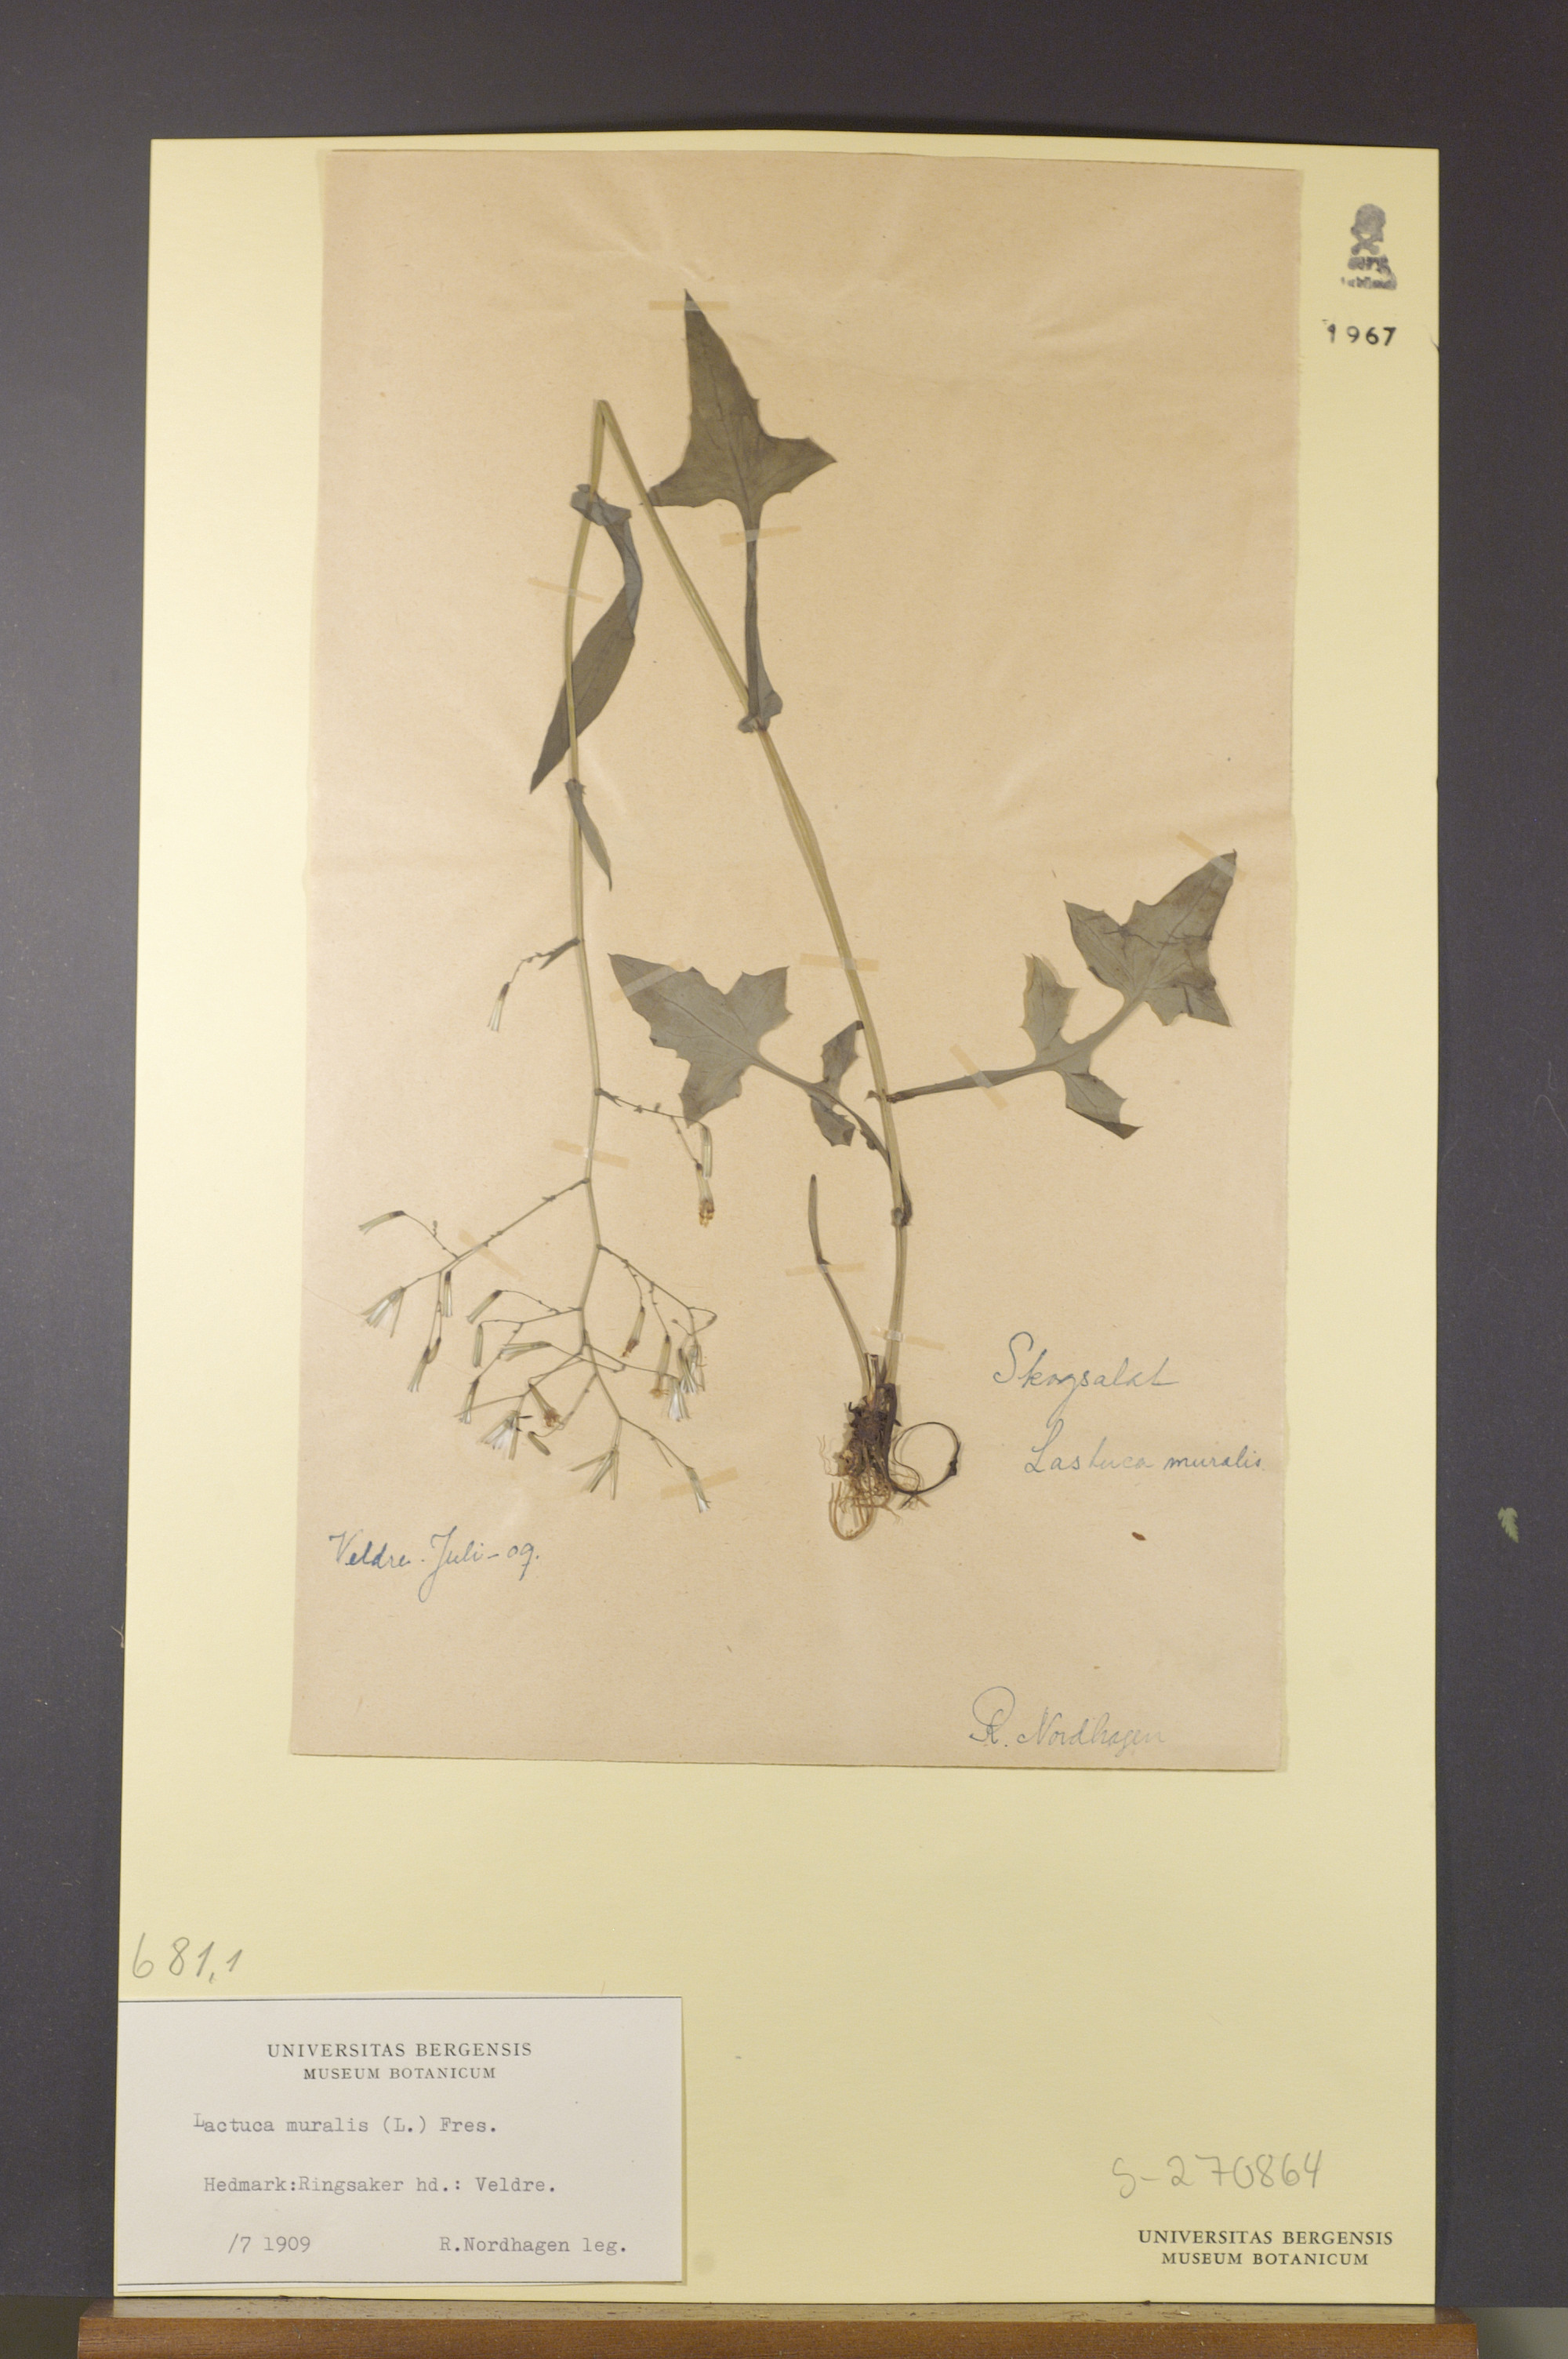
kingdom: Plantae
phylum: Tracheophyta
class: Magnoliopsida
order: Asterales
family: Asteraceae
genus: Mycelis
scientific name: Mycelis muralis
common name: Wall lettuce
